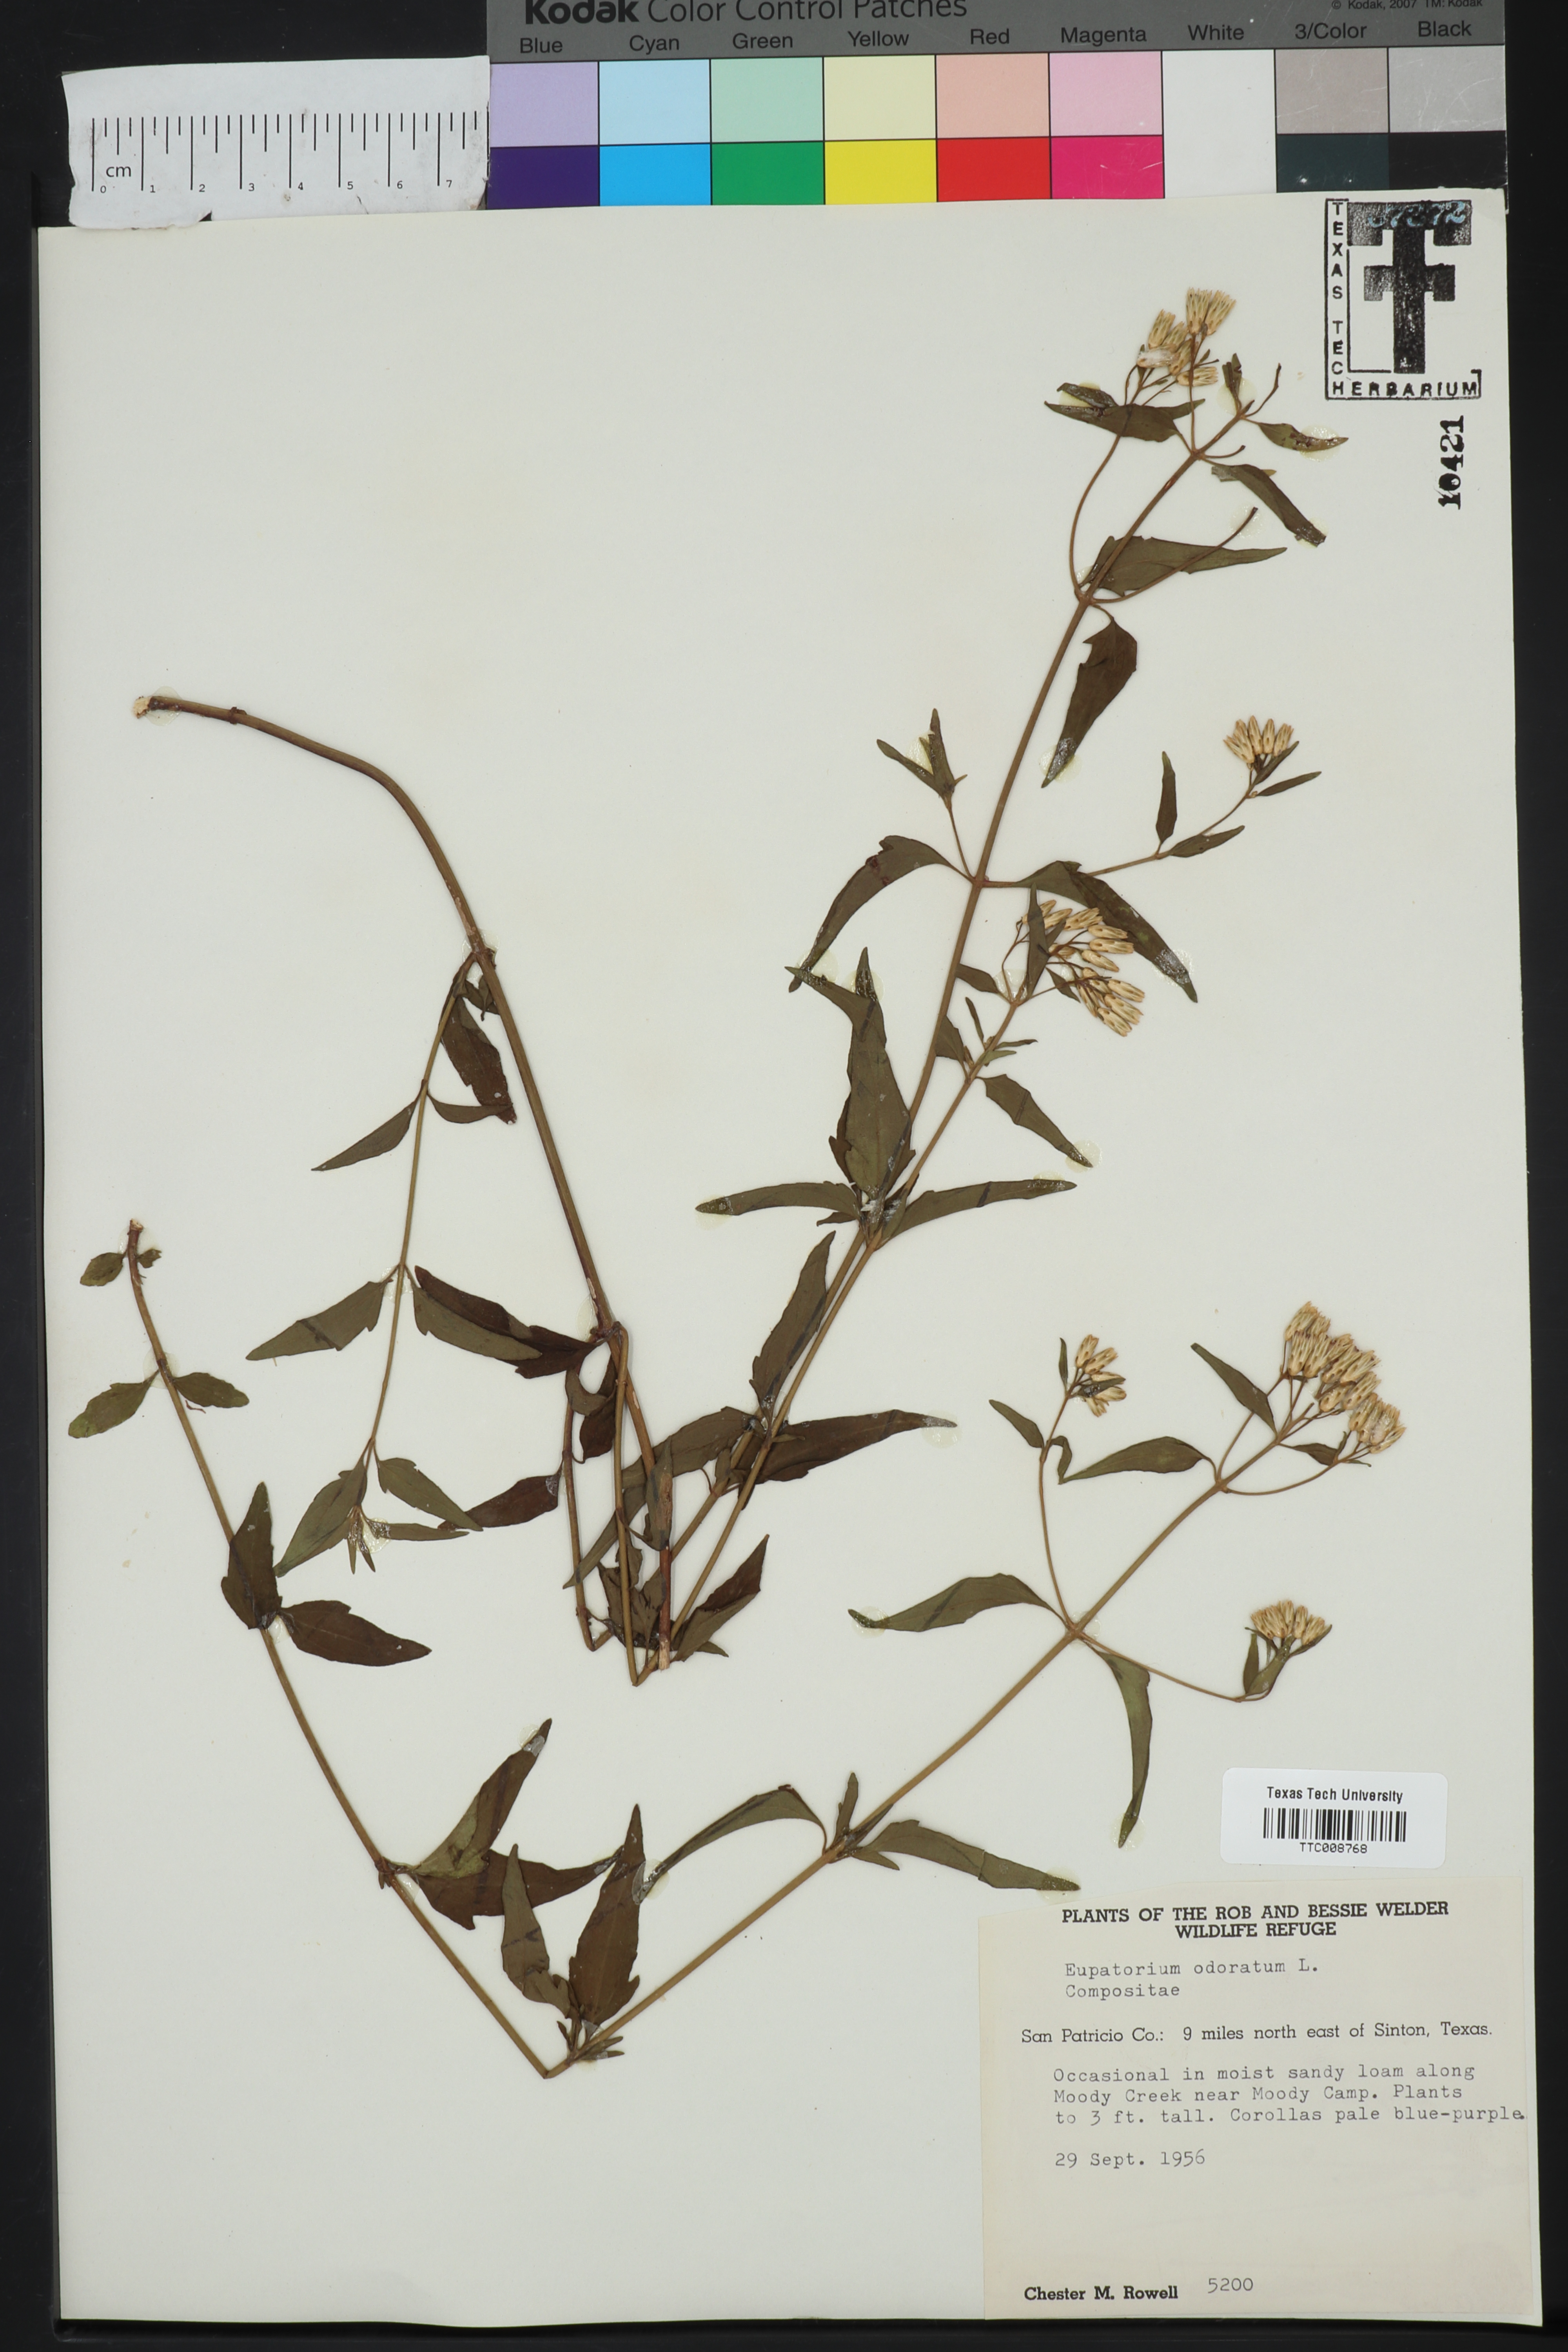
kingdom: Plantae
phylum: Tracheophyta
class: Magnoliopsida
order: Asterales
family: Asteraceae
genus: Ageratina
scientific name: Ageratina altissima
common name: White snakeroot
